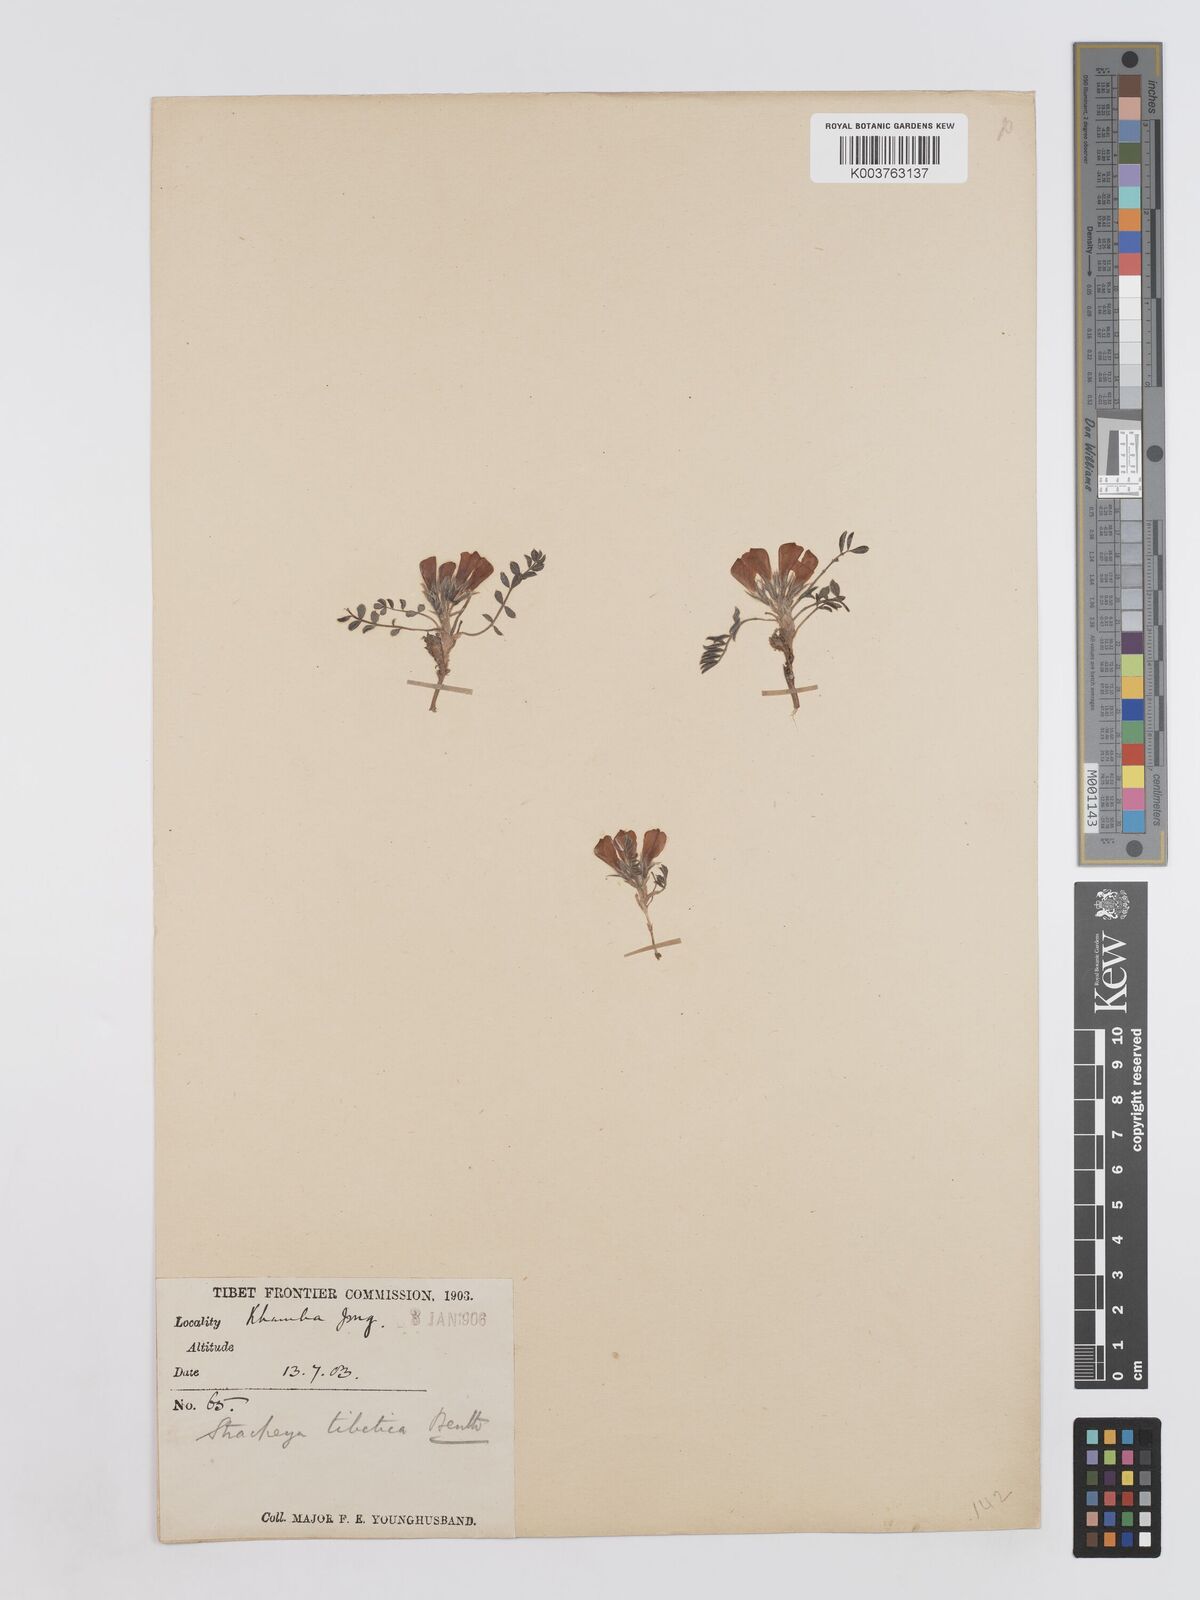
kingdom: Plantae
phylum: Tracheophyta
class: Magnoliopsida
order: Fabales
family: Fabaceae
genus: Hedysarum
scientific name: Hedysarum tibeticum
